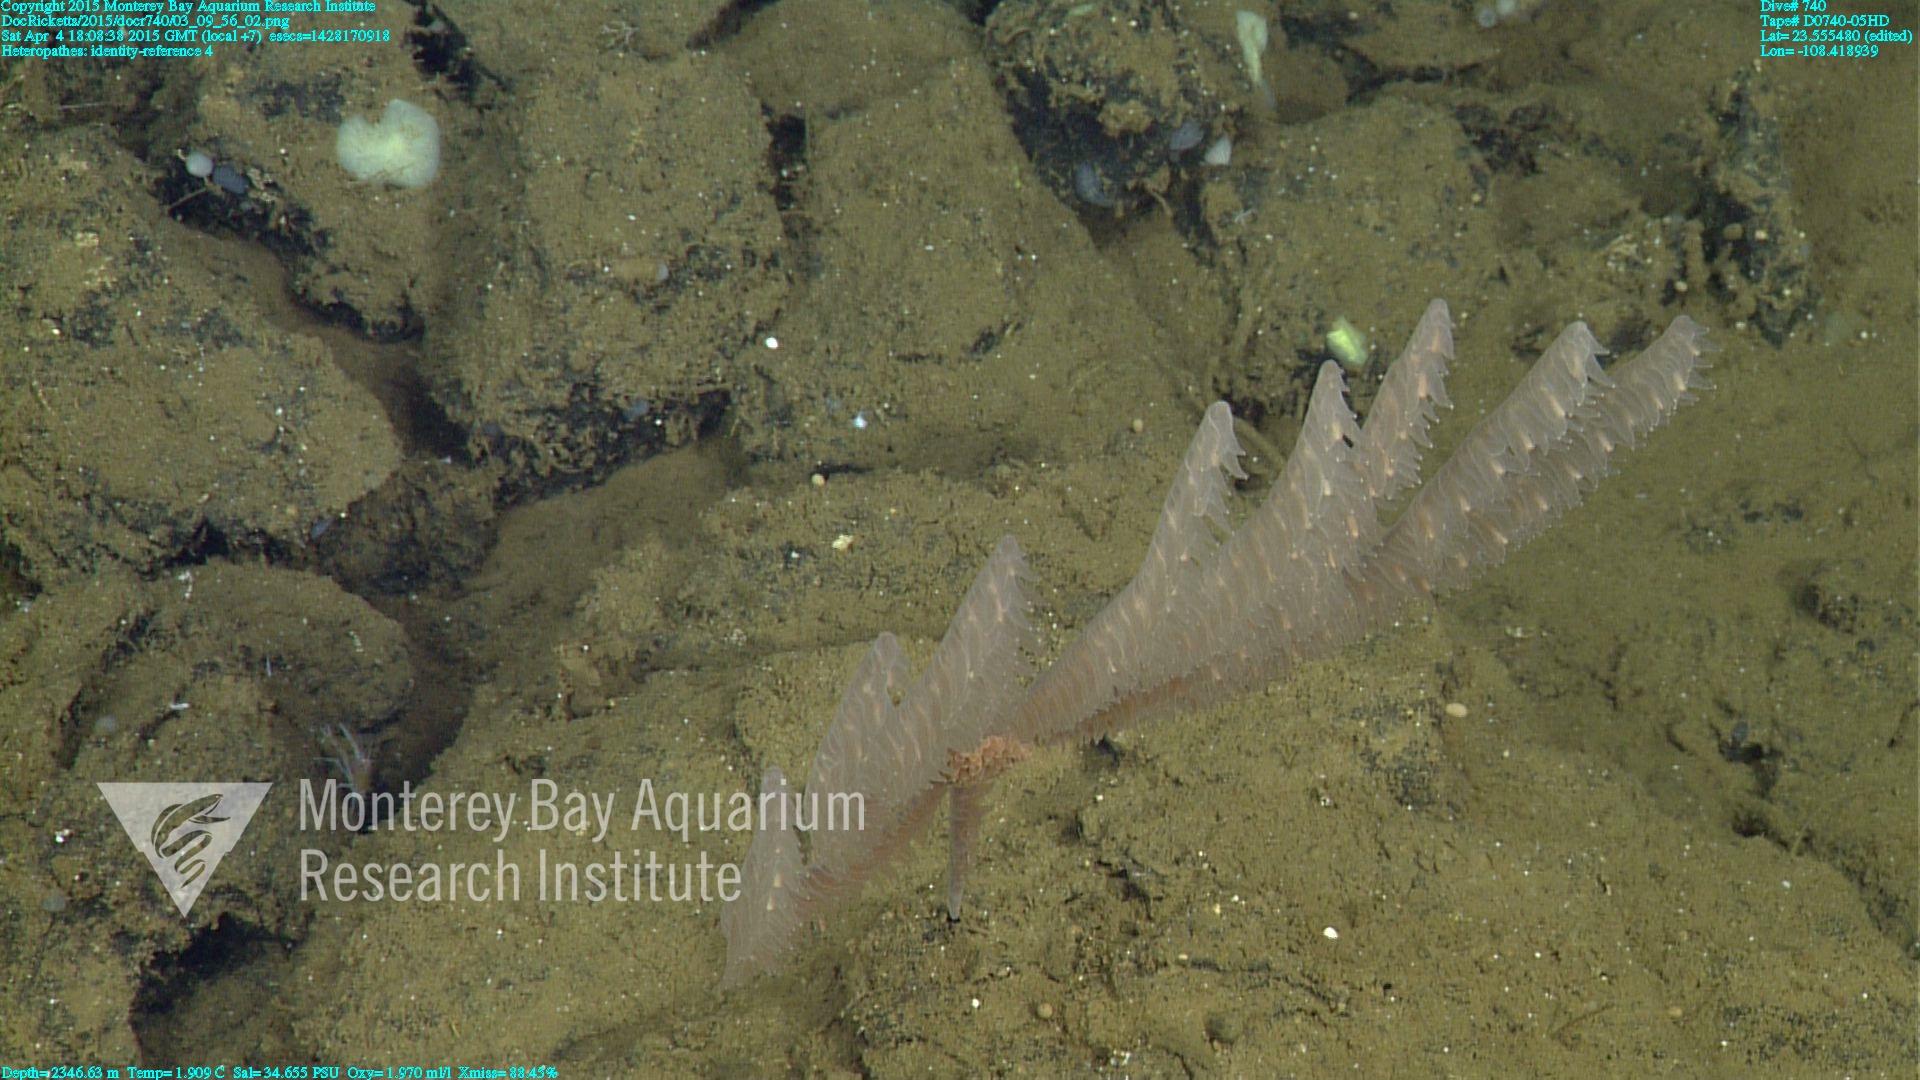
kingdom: Animalia
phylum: Cnidaria
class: Anthozoa
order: Antipatharia
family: Cladopathidae
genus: Heteropathes
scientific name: Heteropathes
